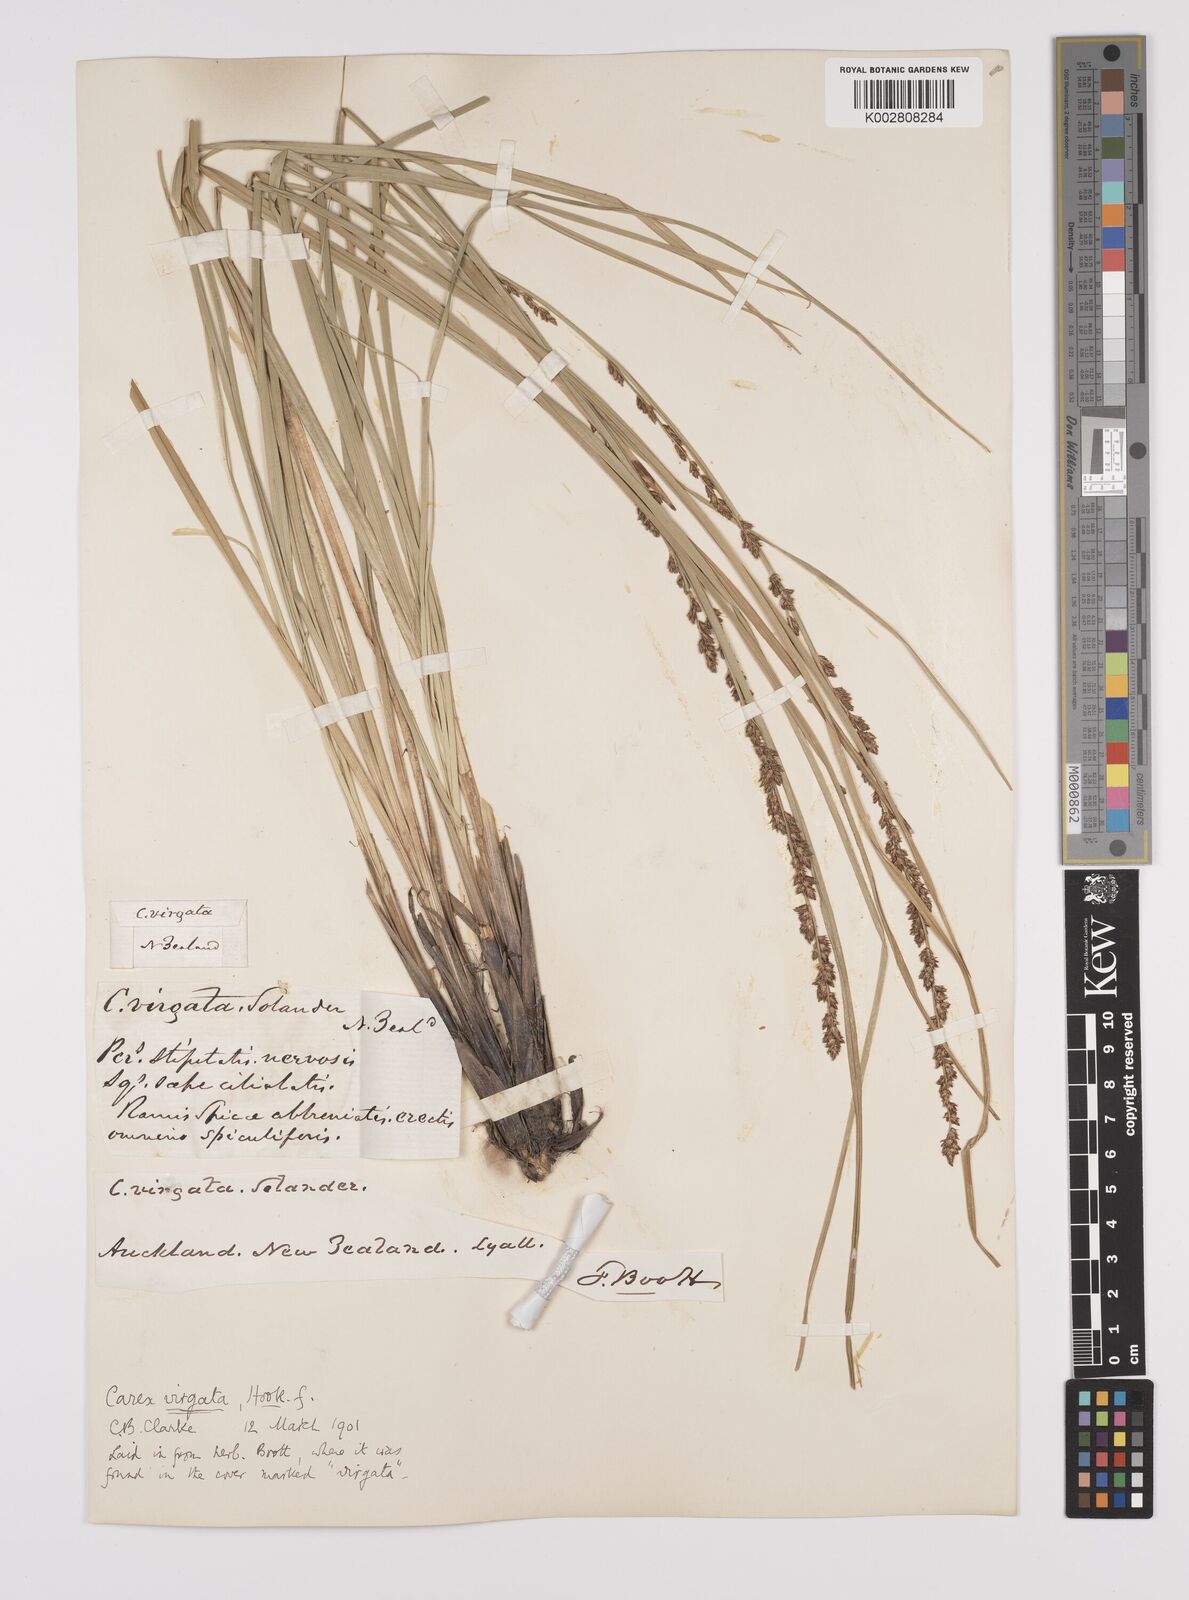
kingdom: Plantae
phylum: Tracheophyta
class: Liliopsida
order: Poales
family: Cyperaceae
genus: Carex
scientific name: Carex appressa
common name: Tussock sedge
